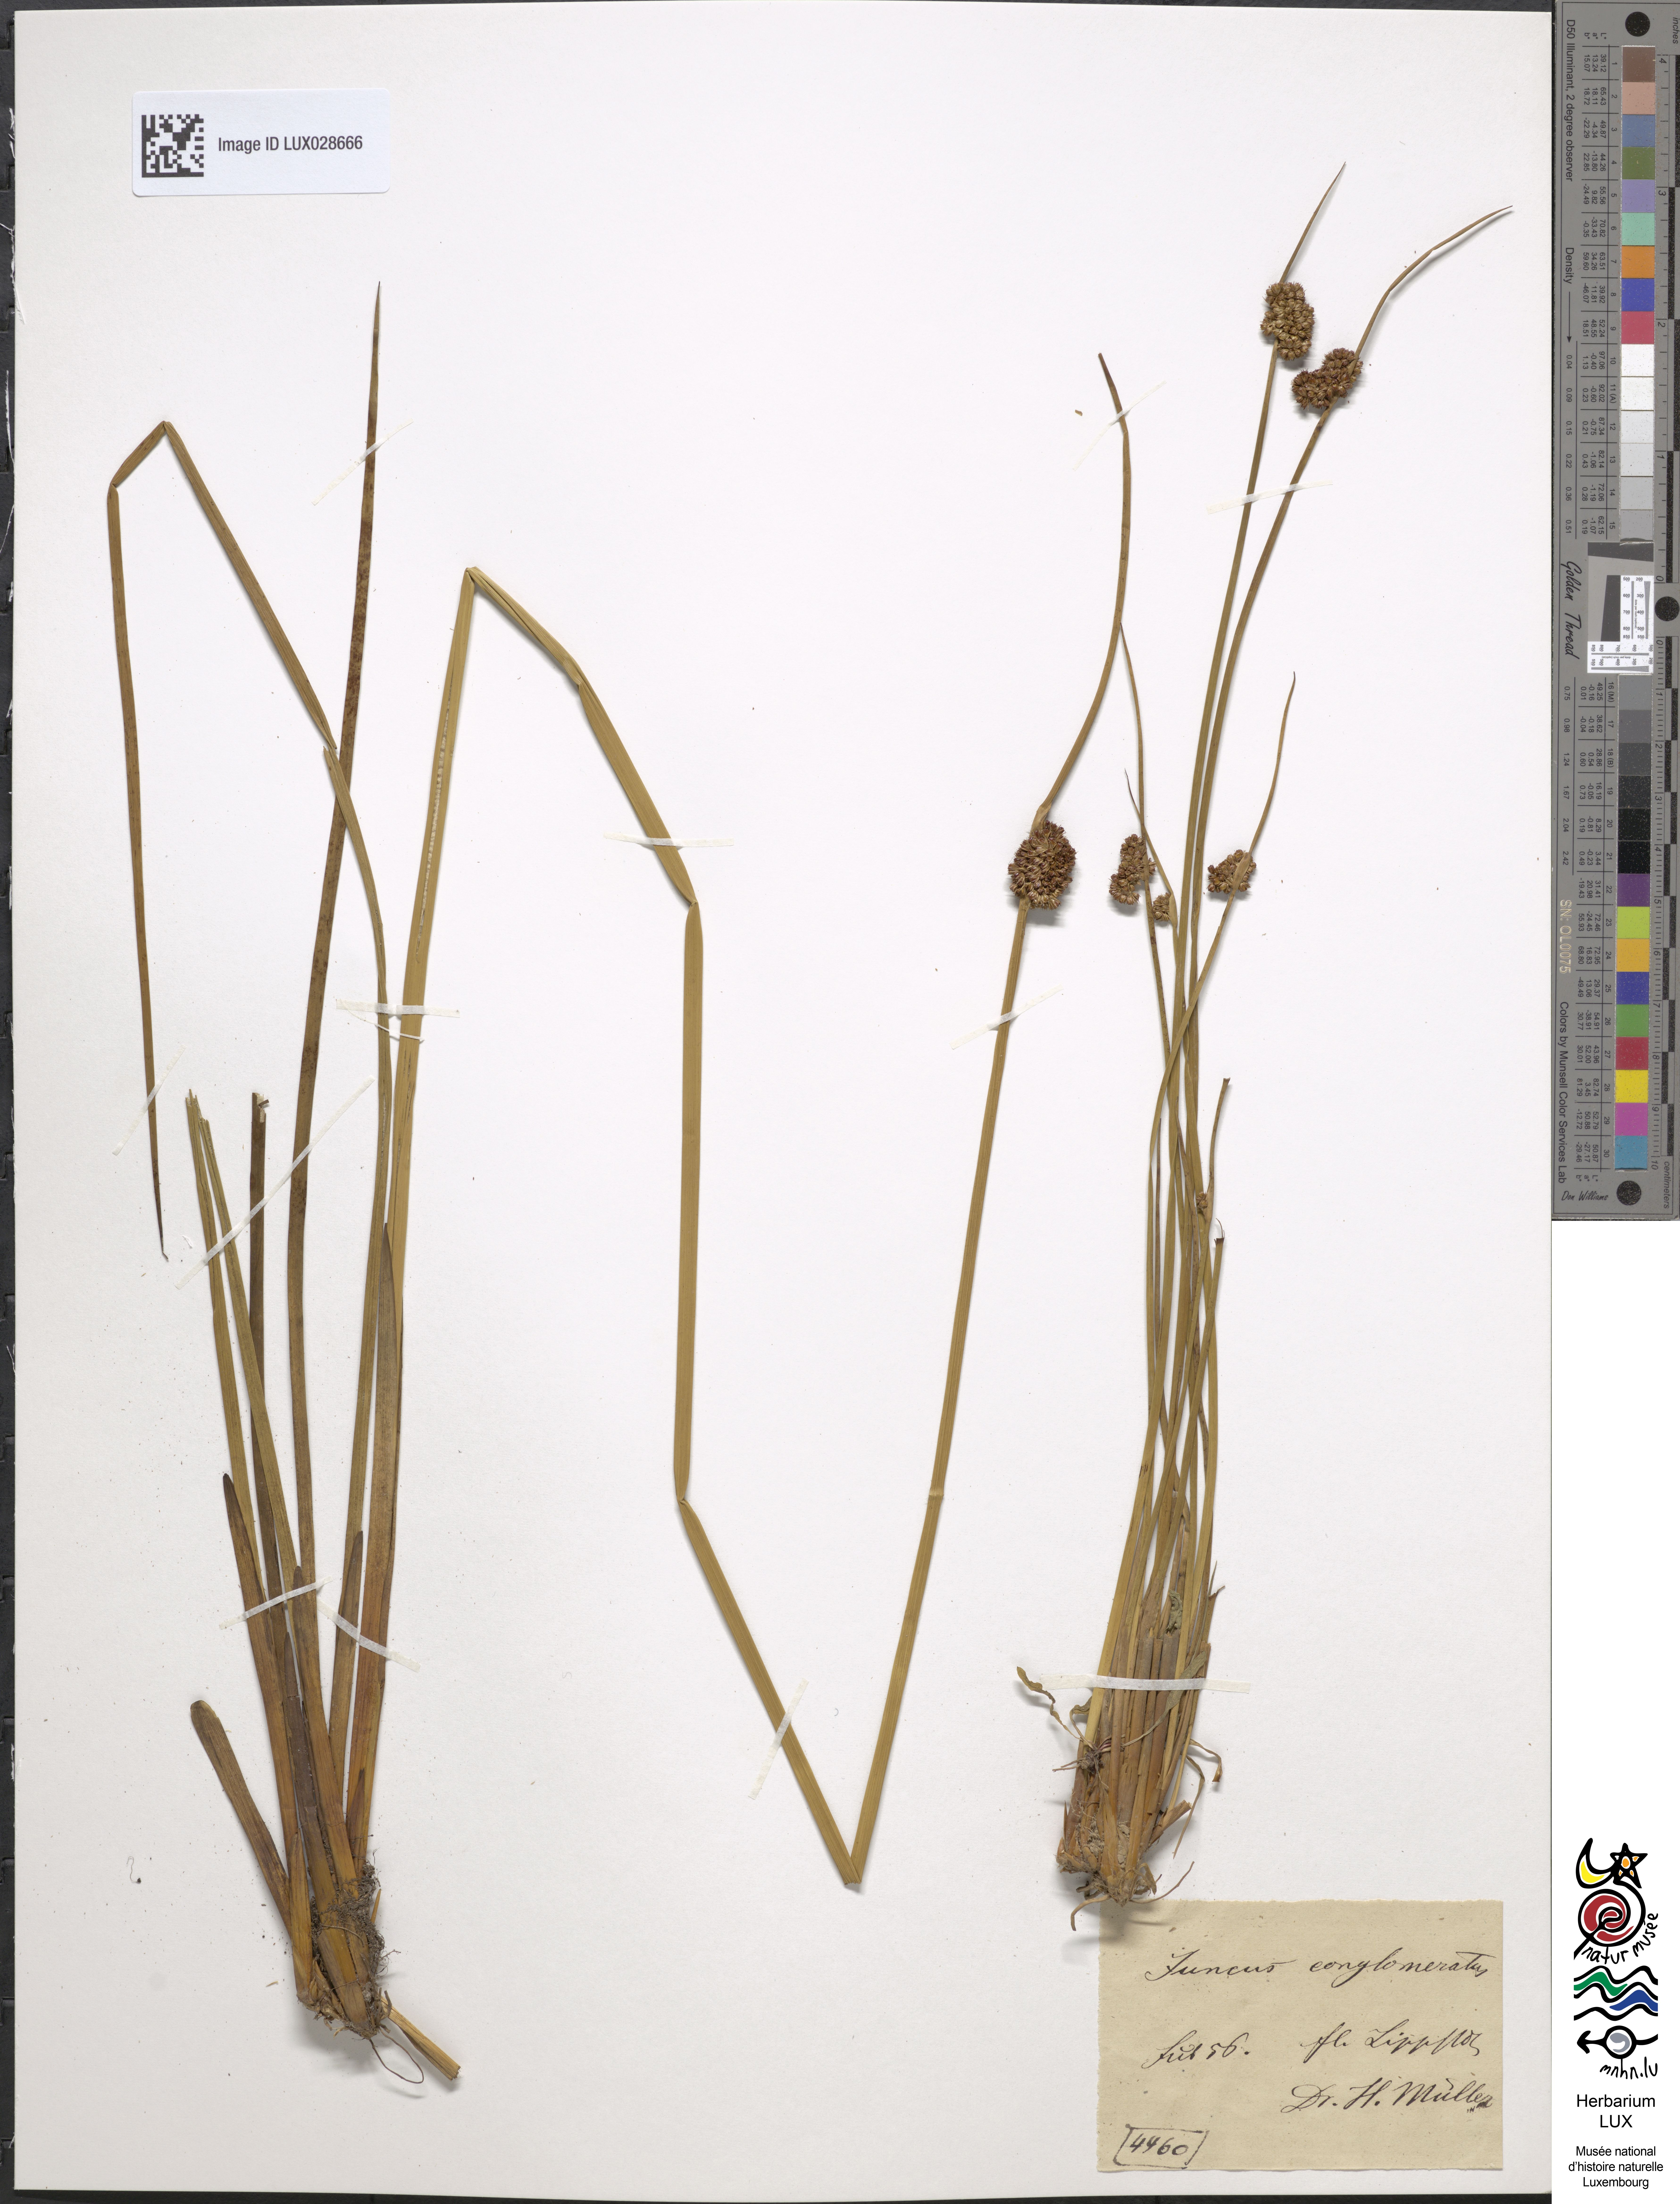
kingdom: Plantae
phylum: Tracheophyta
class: Liliopsida
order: Poales
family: Juncaceae
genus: Juncus
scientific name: Juncus conglomeratus
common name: Compact rush
